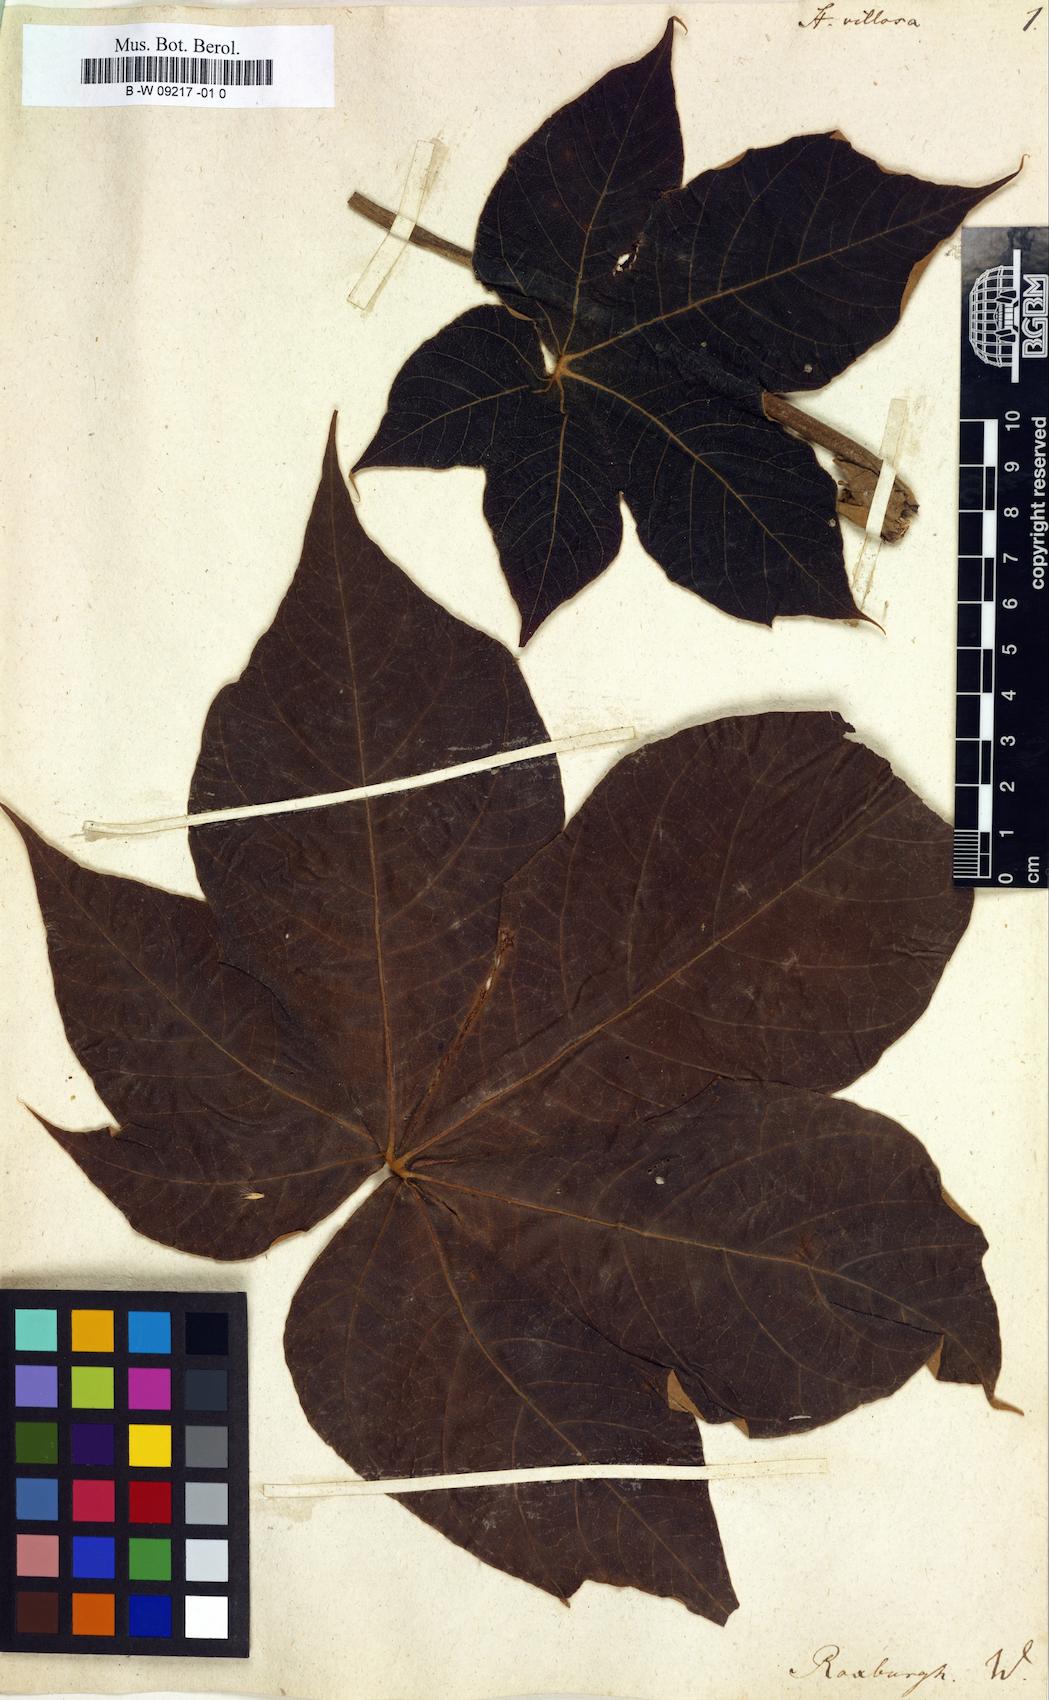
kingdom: Plantae
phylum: Tracheophyta
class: Magnoliopsida
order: Malvales
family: Malvaceae
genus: Sterculia
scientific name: Sterculia villosa
